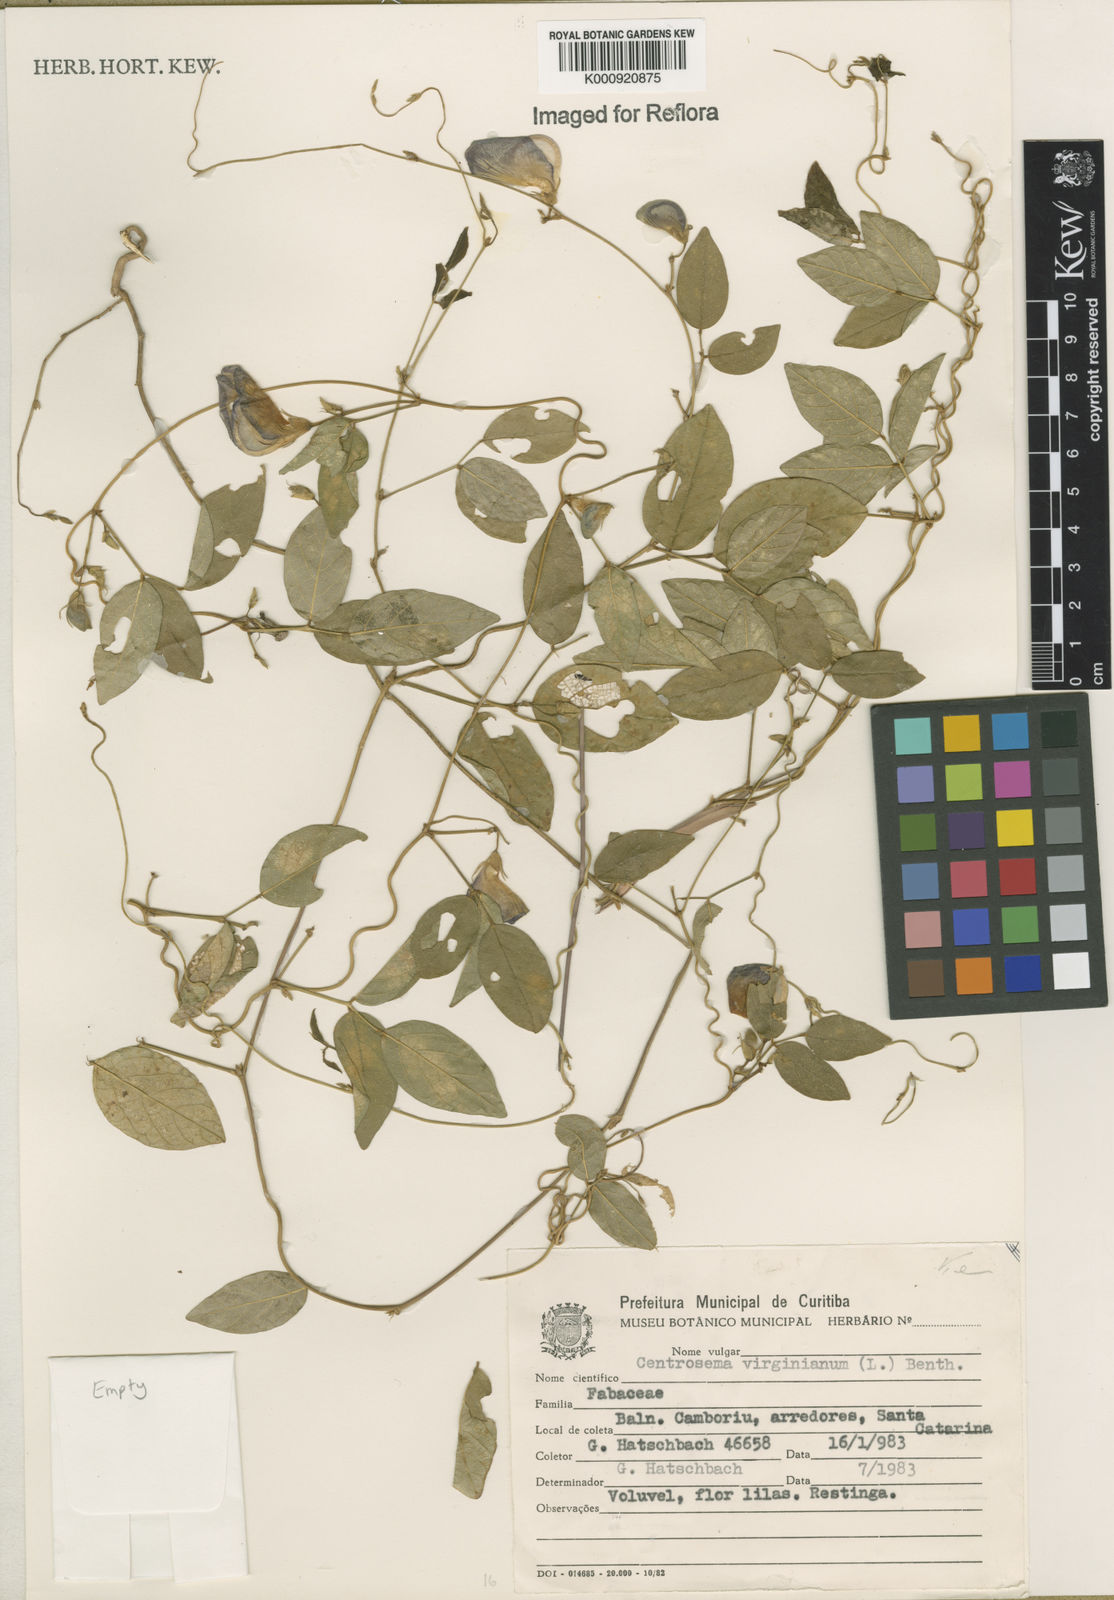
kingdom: Plantae
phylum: Tracheophyta
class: Magnoliopsida
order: Fabales
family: Fabaceae
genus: Centrosema
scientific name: Centrosema virginianum
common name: Butterfly-pea
